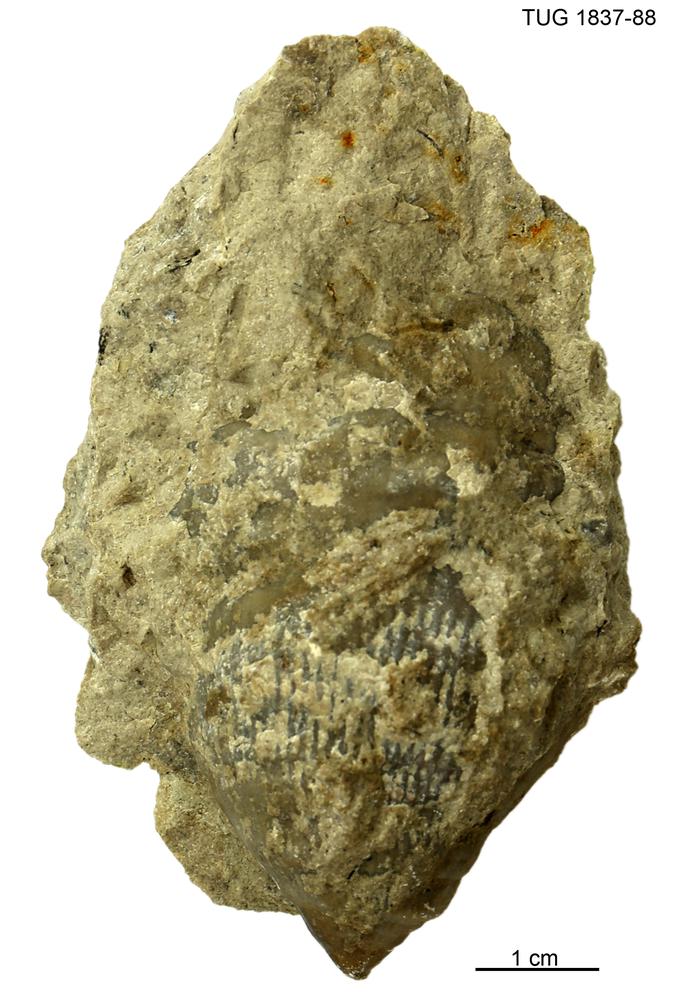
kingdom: Animalia
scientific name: Animalia
